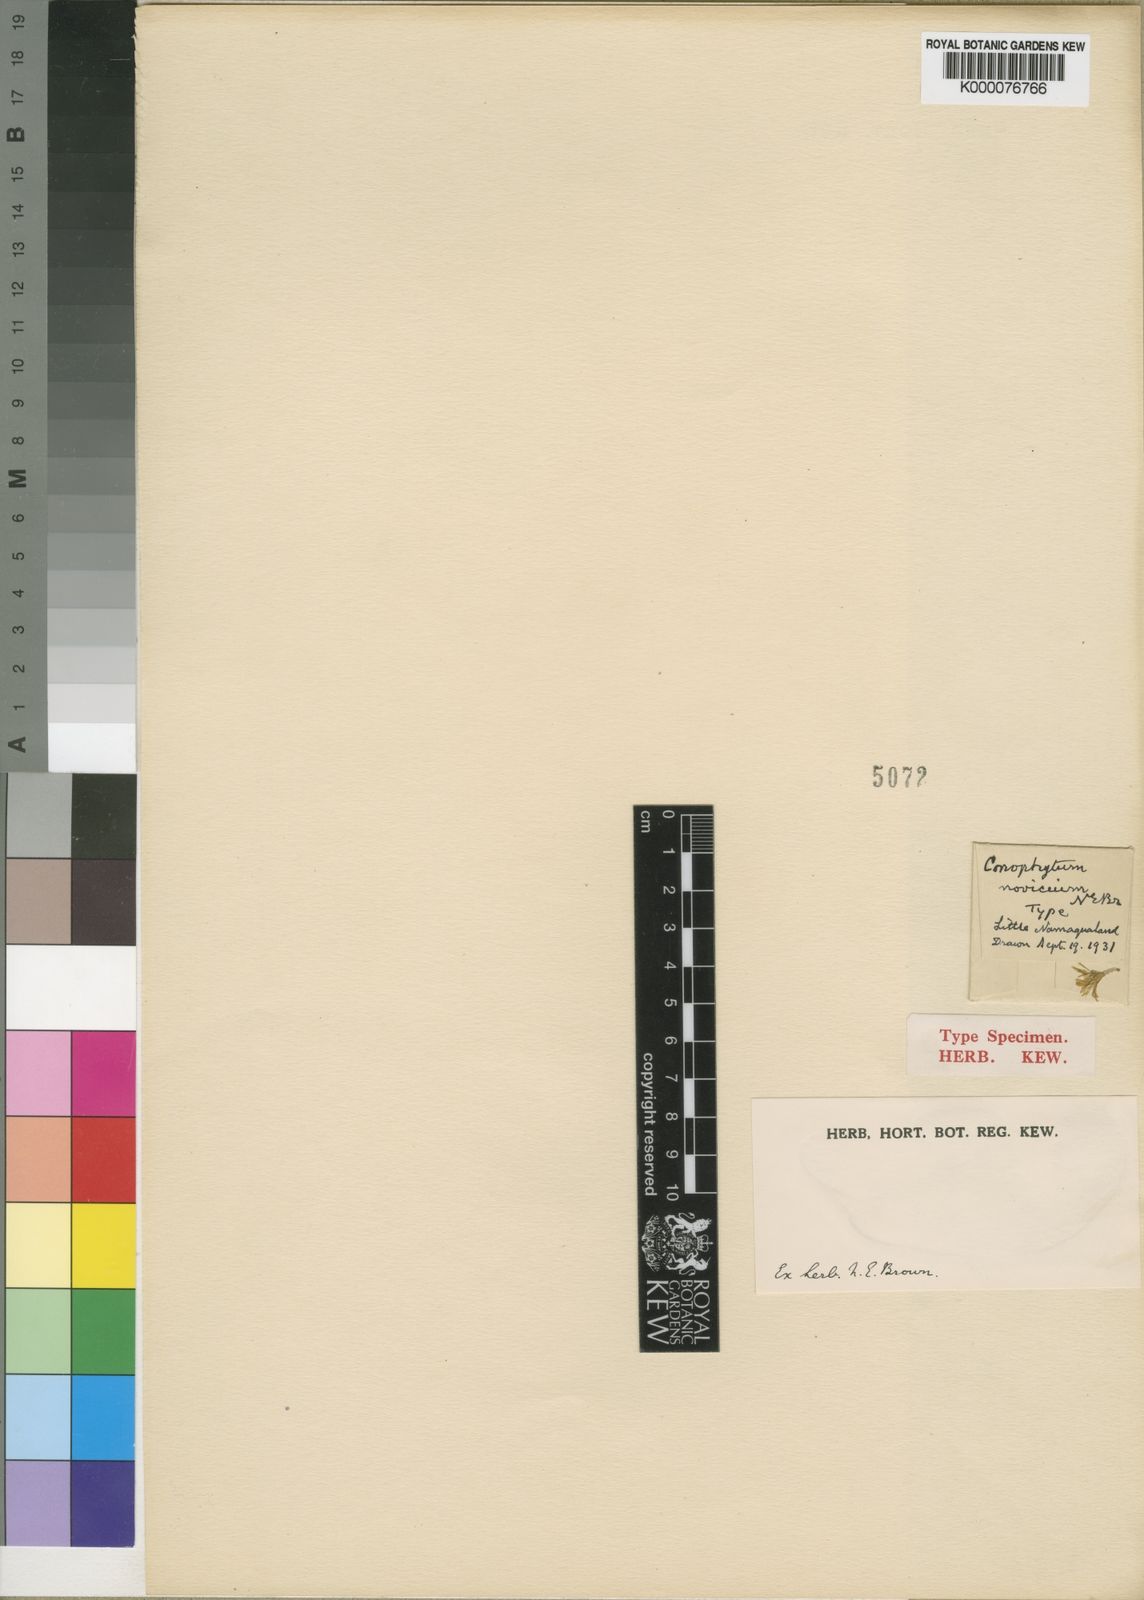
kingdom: Plantae
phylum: Tracheophyta
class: Magnoliopsida
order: Caryophyllales
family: Aizoaceae
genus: Conophytum
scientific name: Conophytum flavum
